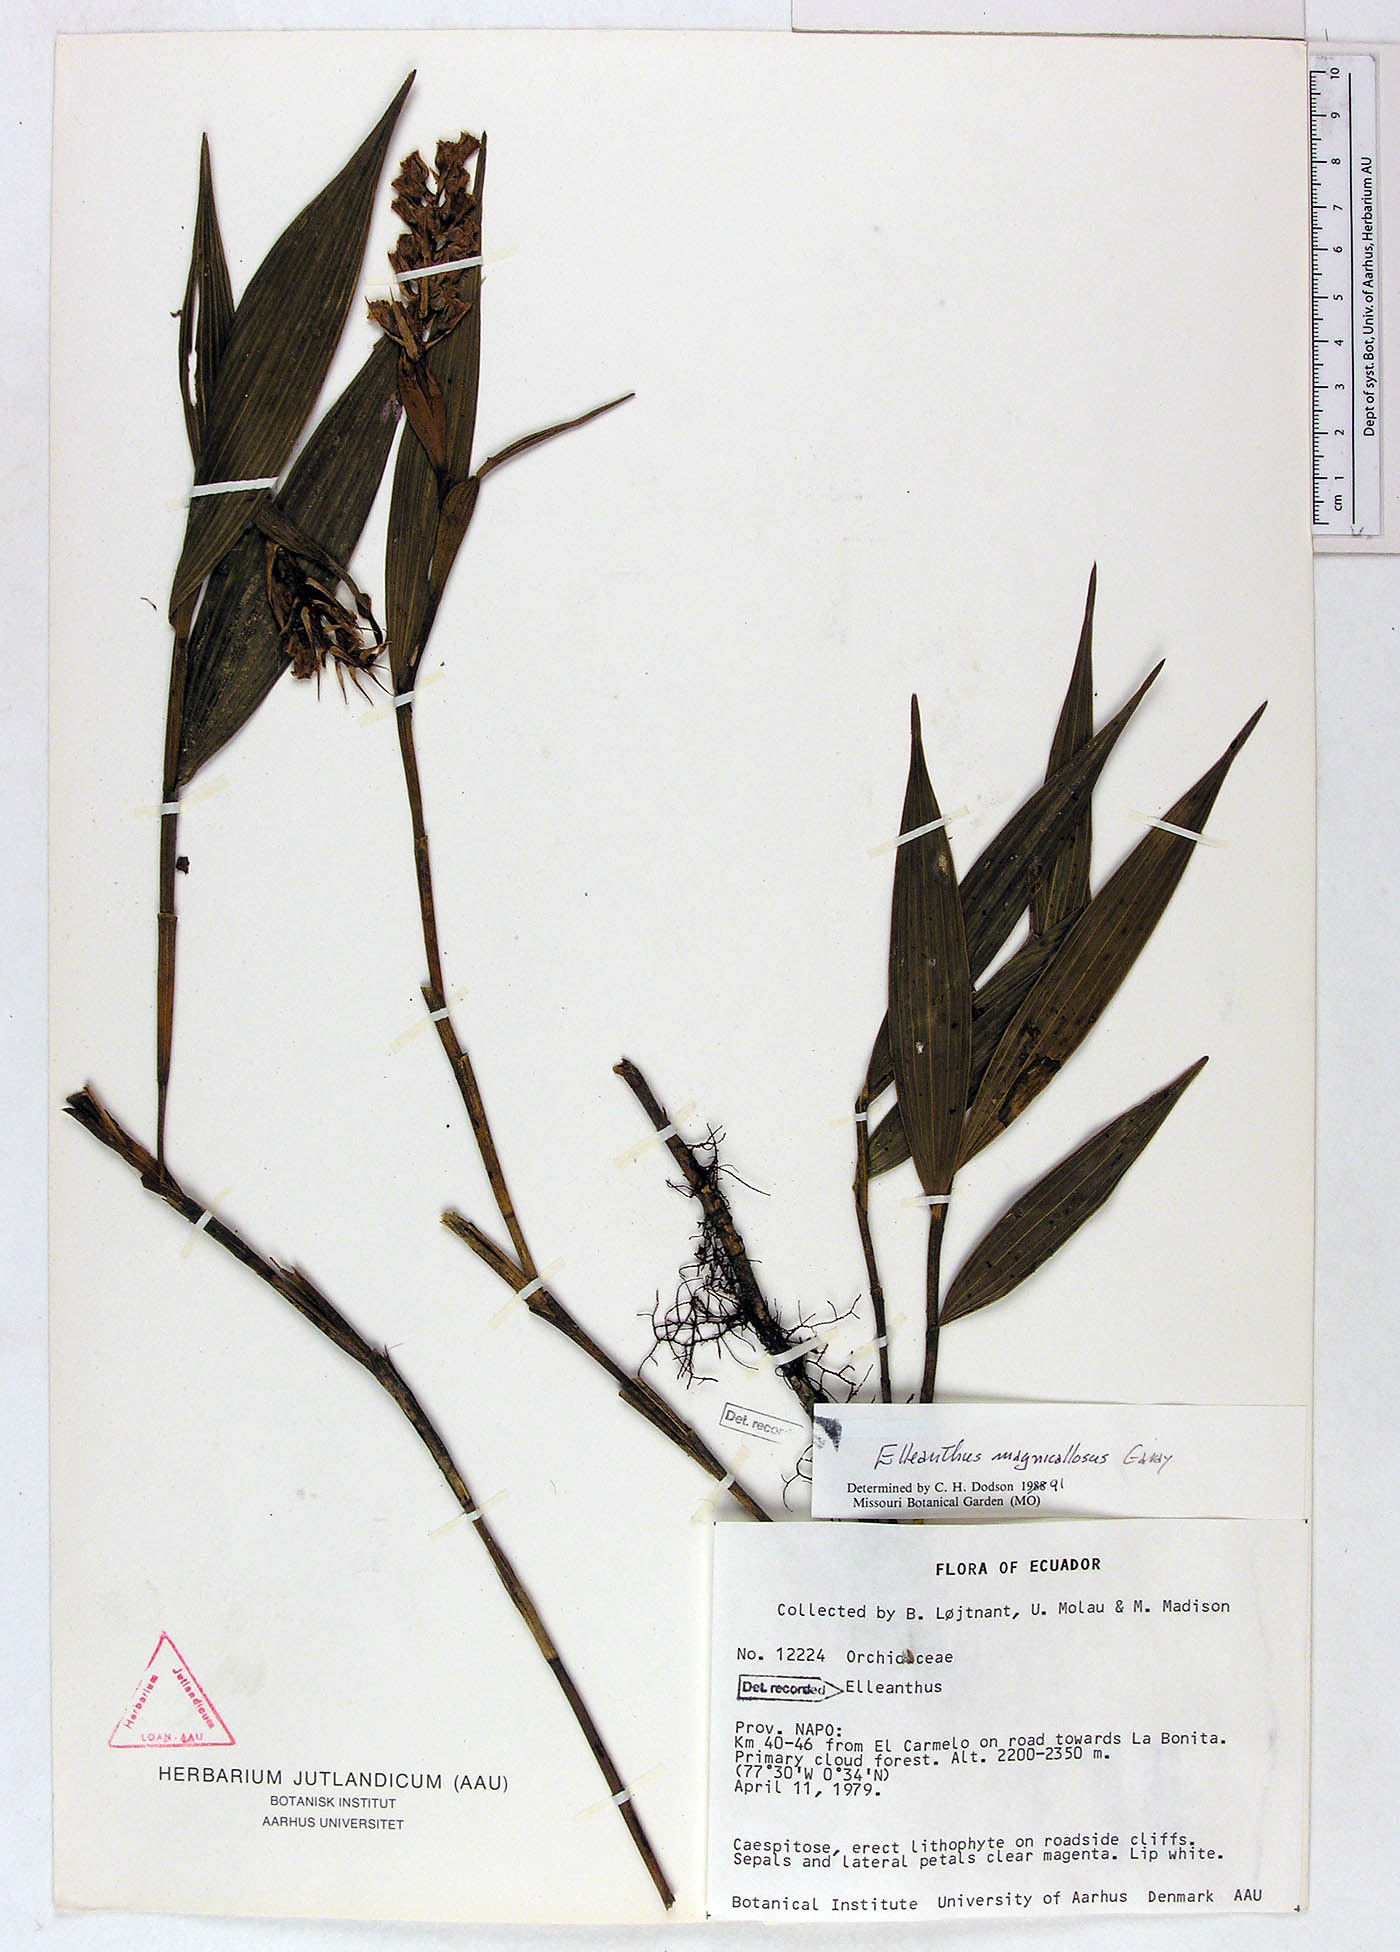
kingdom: Plantae
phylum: Tracheophyta
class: Liliopsida
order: Asparagales
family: Orchidaceae
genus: Elleanthus
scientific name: Elleanthus magnicallosus
